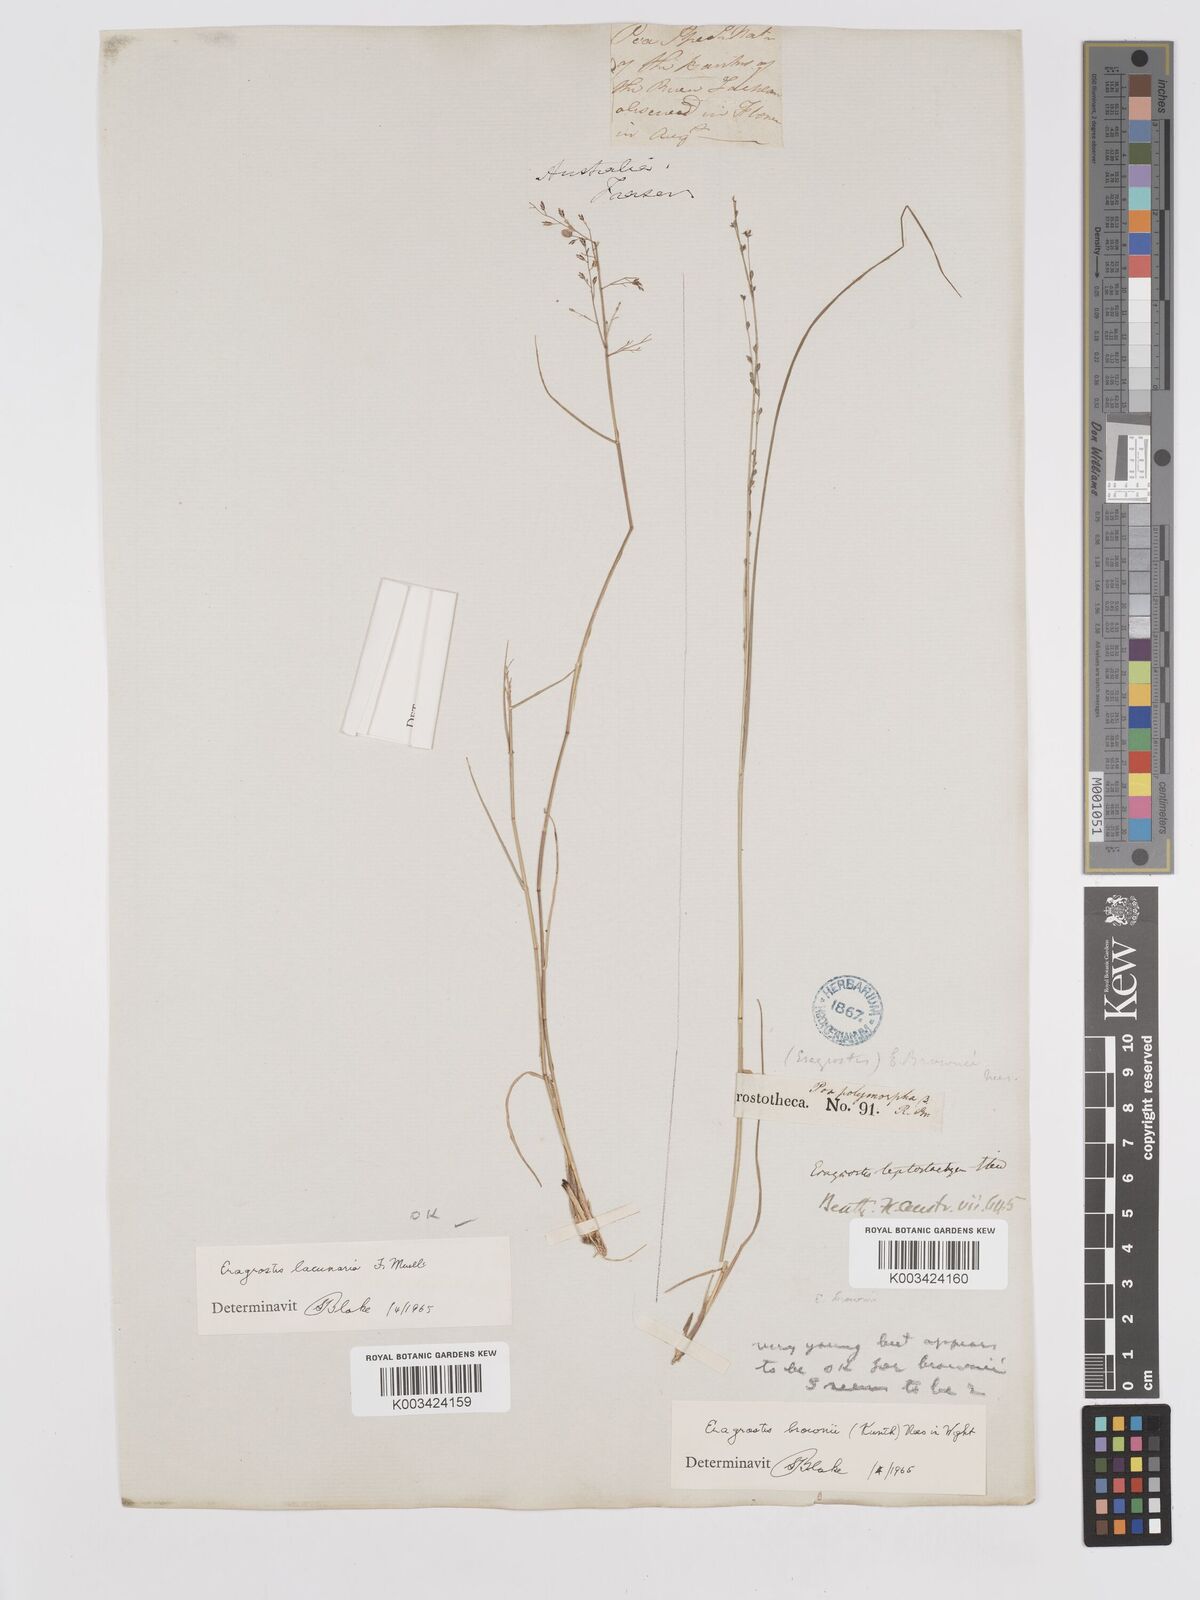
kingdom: Plantae
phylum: Tracheophyta
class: Liliopsida
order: Poales
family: Poaceae
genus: Eragrostis
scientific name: Eragrostis brownii
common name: Lovegrass
